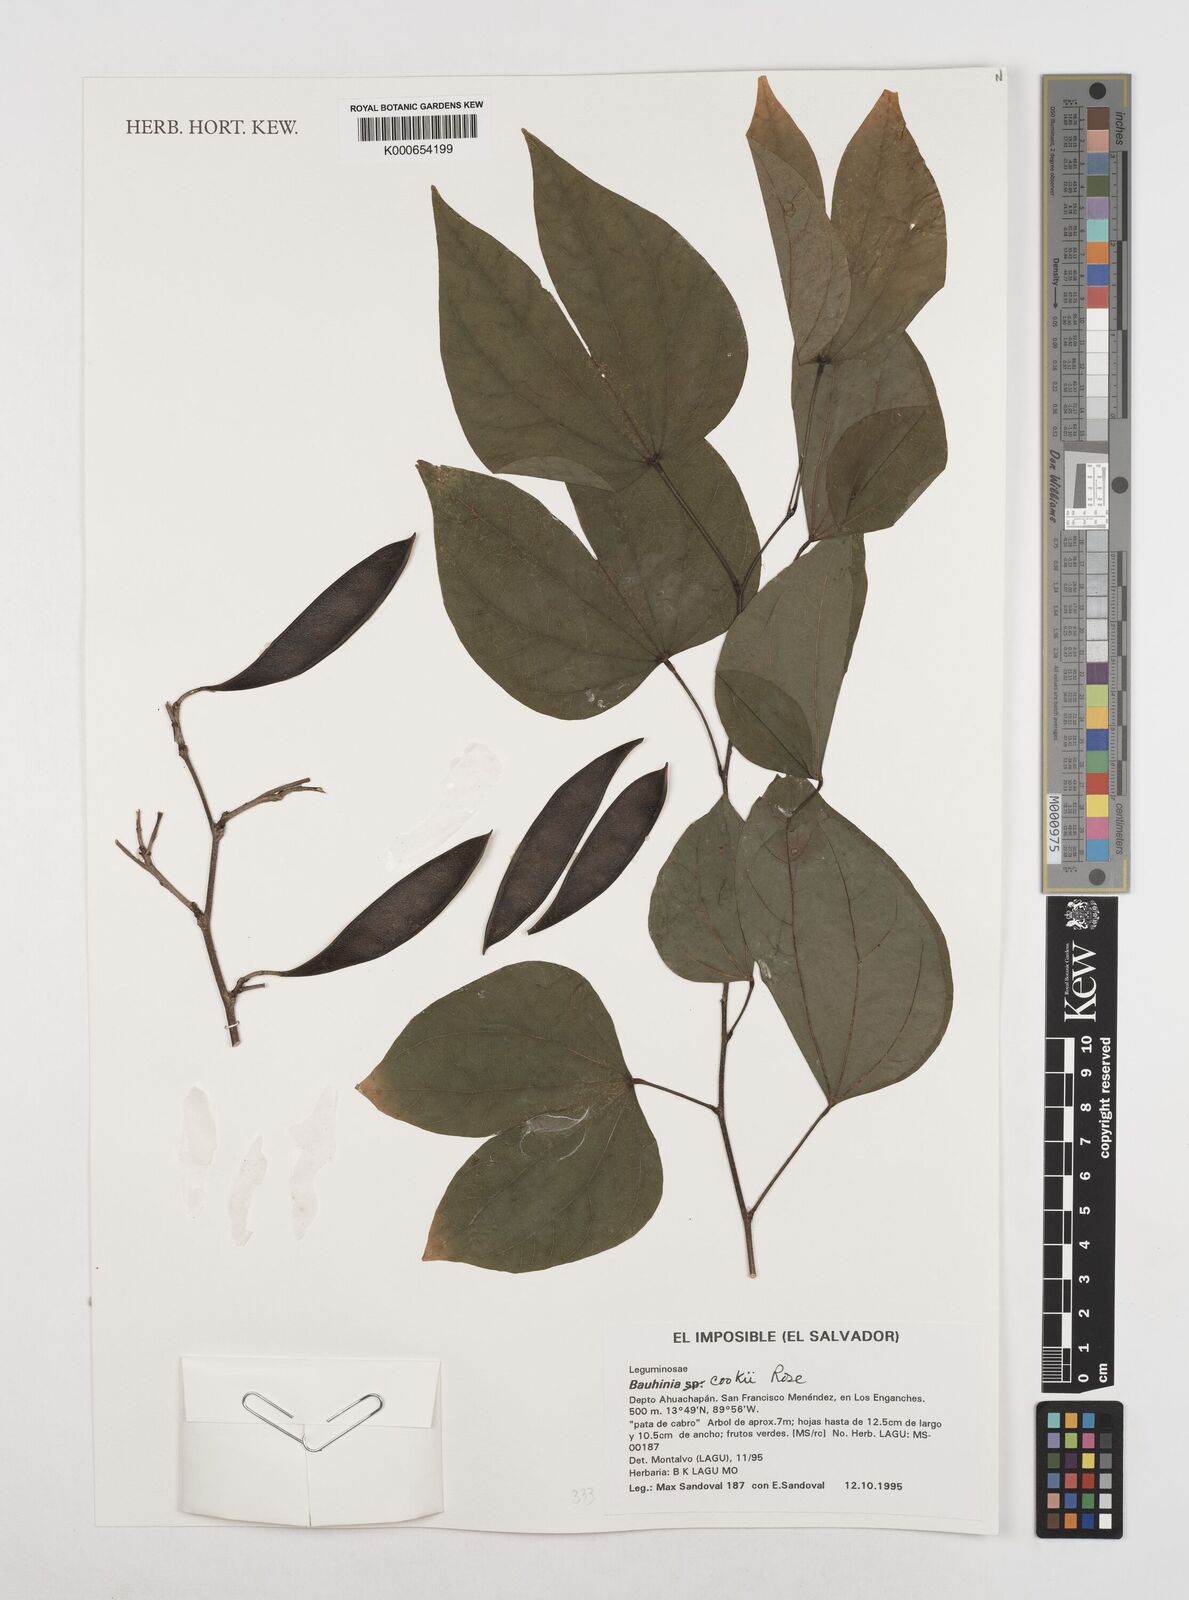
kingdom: Plantae
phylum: Tracheophyta
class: Magnoliopsida
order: Fabales
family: Fabaceae
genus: Bauhinia
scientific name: Bauhinia cookii
